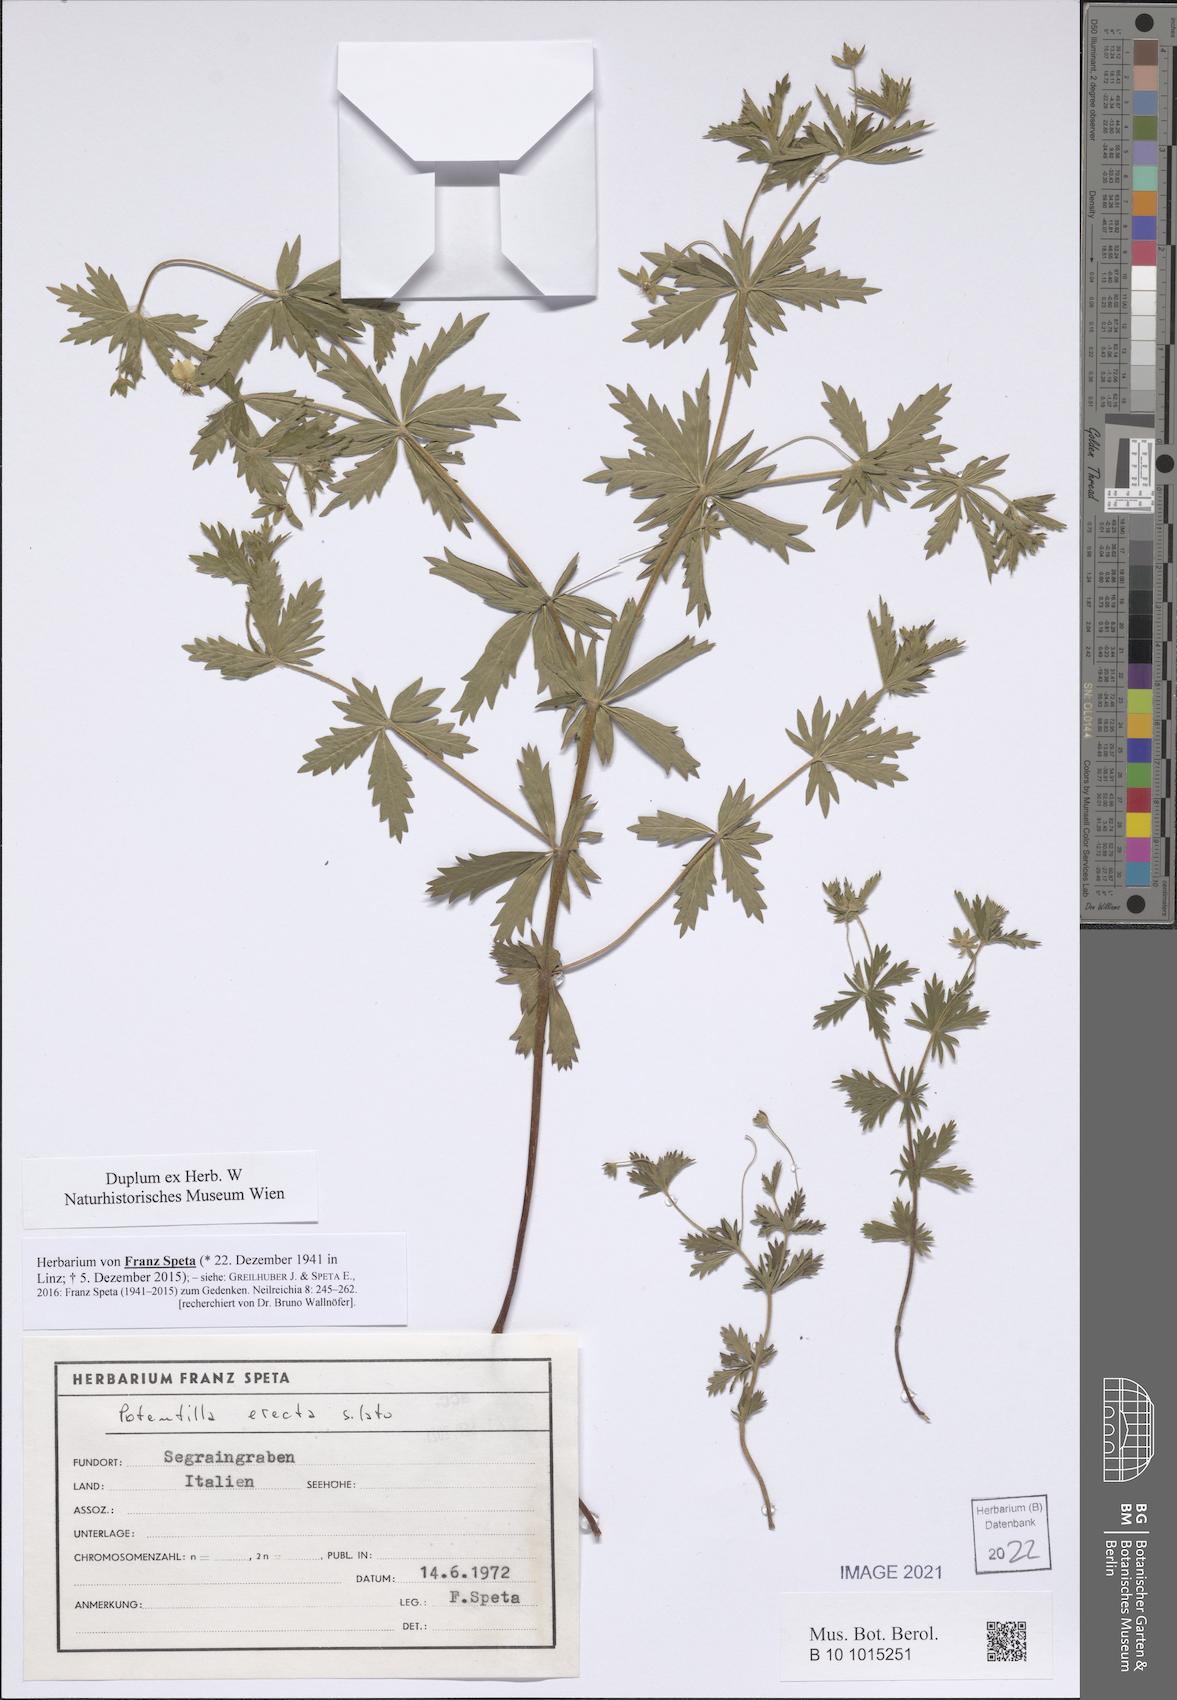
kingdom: Plantae
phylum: Tracheophyta
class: Magnoliopsida
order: Rosales
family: Rosaceae
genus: Potentilla
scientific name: Potentilla erecta
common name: Tormentil
